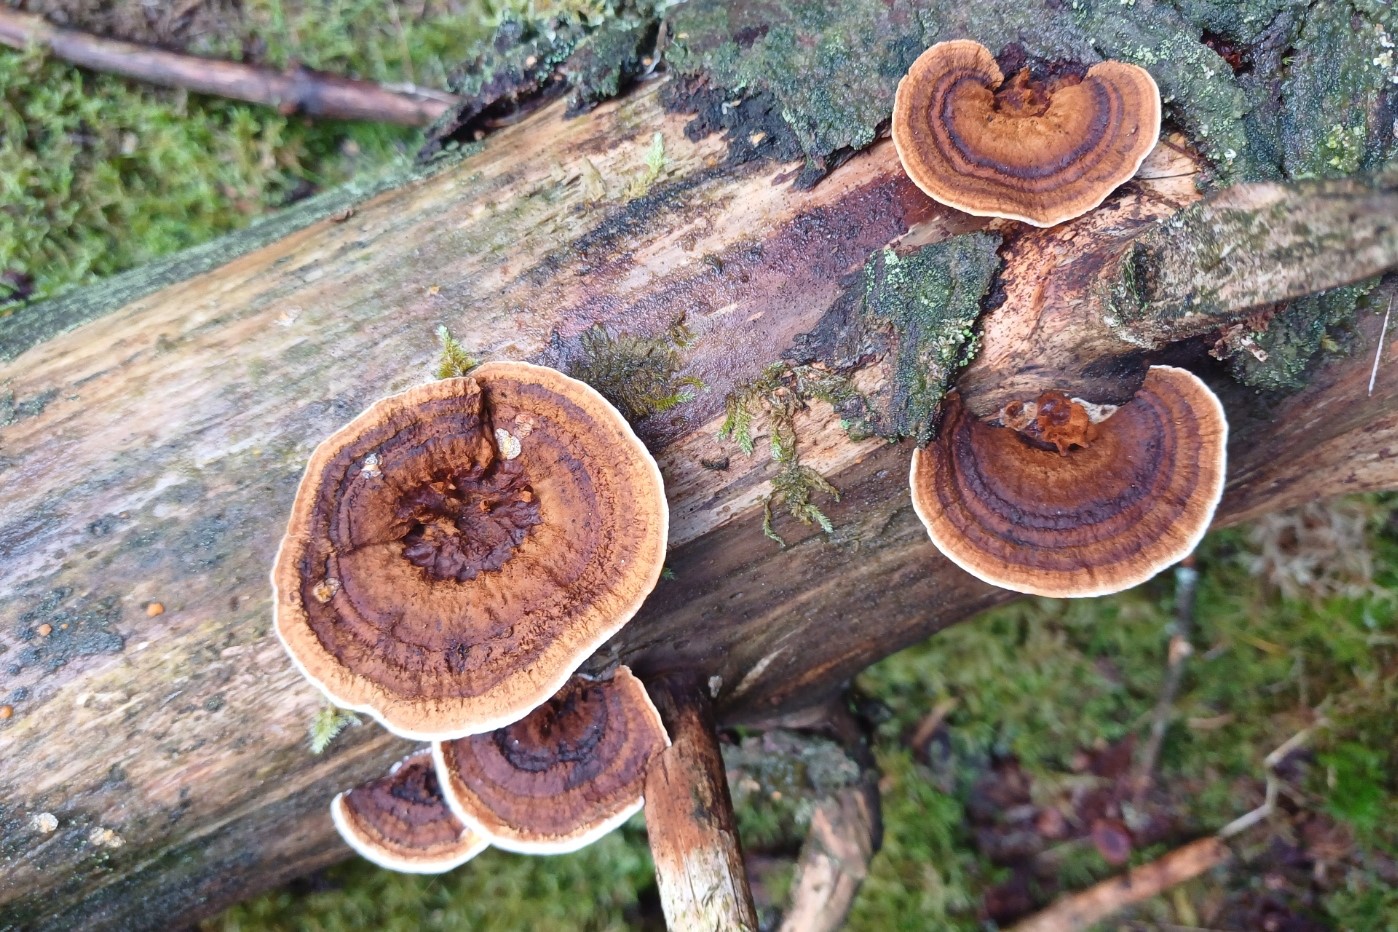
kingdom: Fungi
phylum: Basidiomycota
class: Agaricomycetes
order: Gloeophyllales
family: Gloeophyllaceae
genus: Gloeophyllum
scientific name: Gloeophyllum sepiarium
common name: fyrre-korkhat
